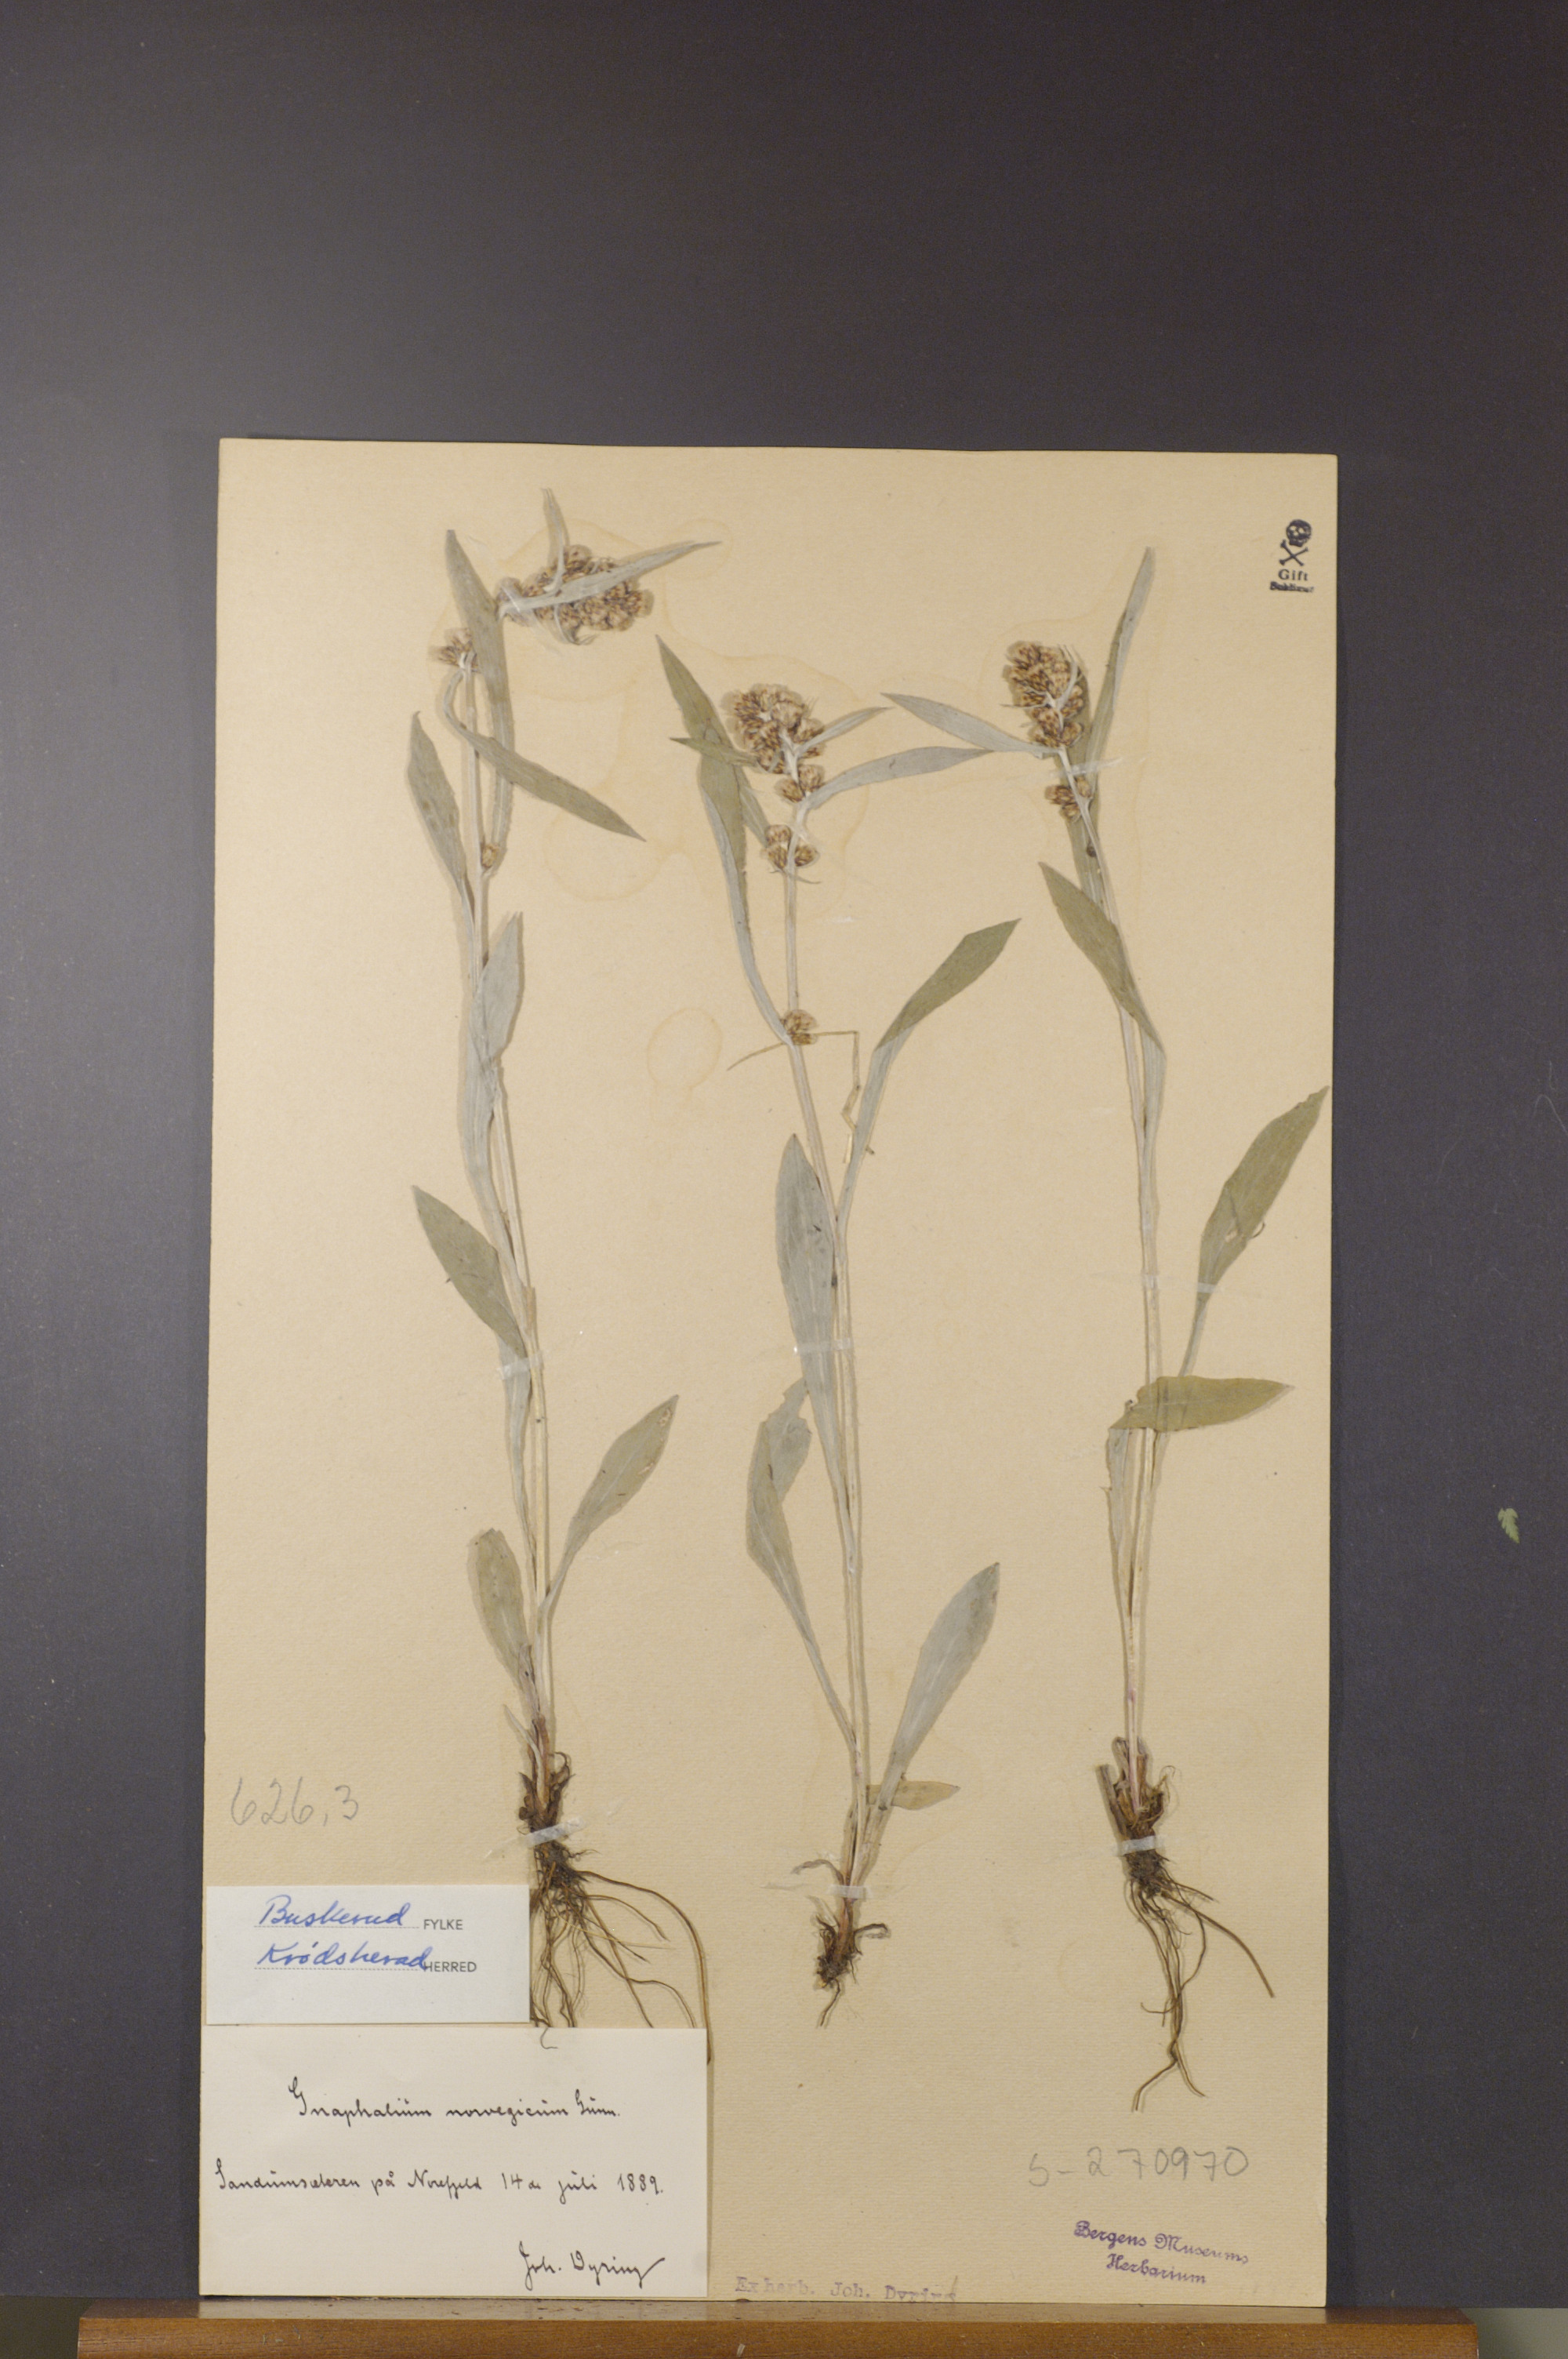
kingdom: Plantae
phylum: Tracheophyta
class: Magnoliopsida
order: Asterales
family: Asteraceae
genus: Omalotheca
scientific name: Omalotheca norvegica
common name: Norwegian arctic-cudweed
